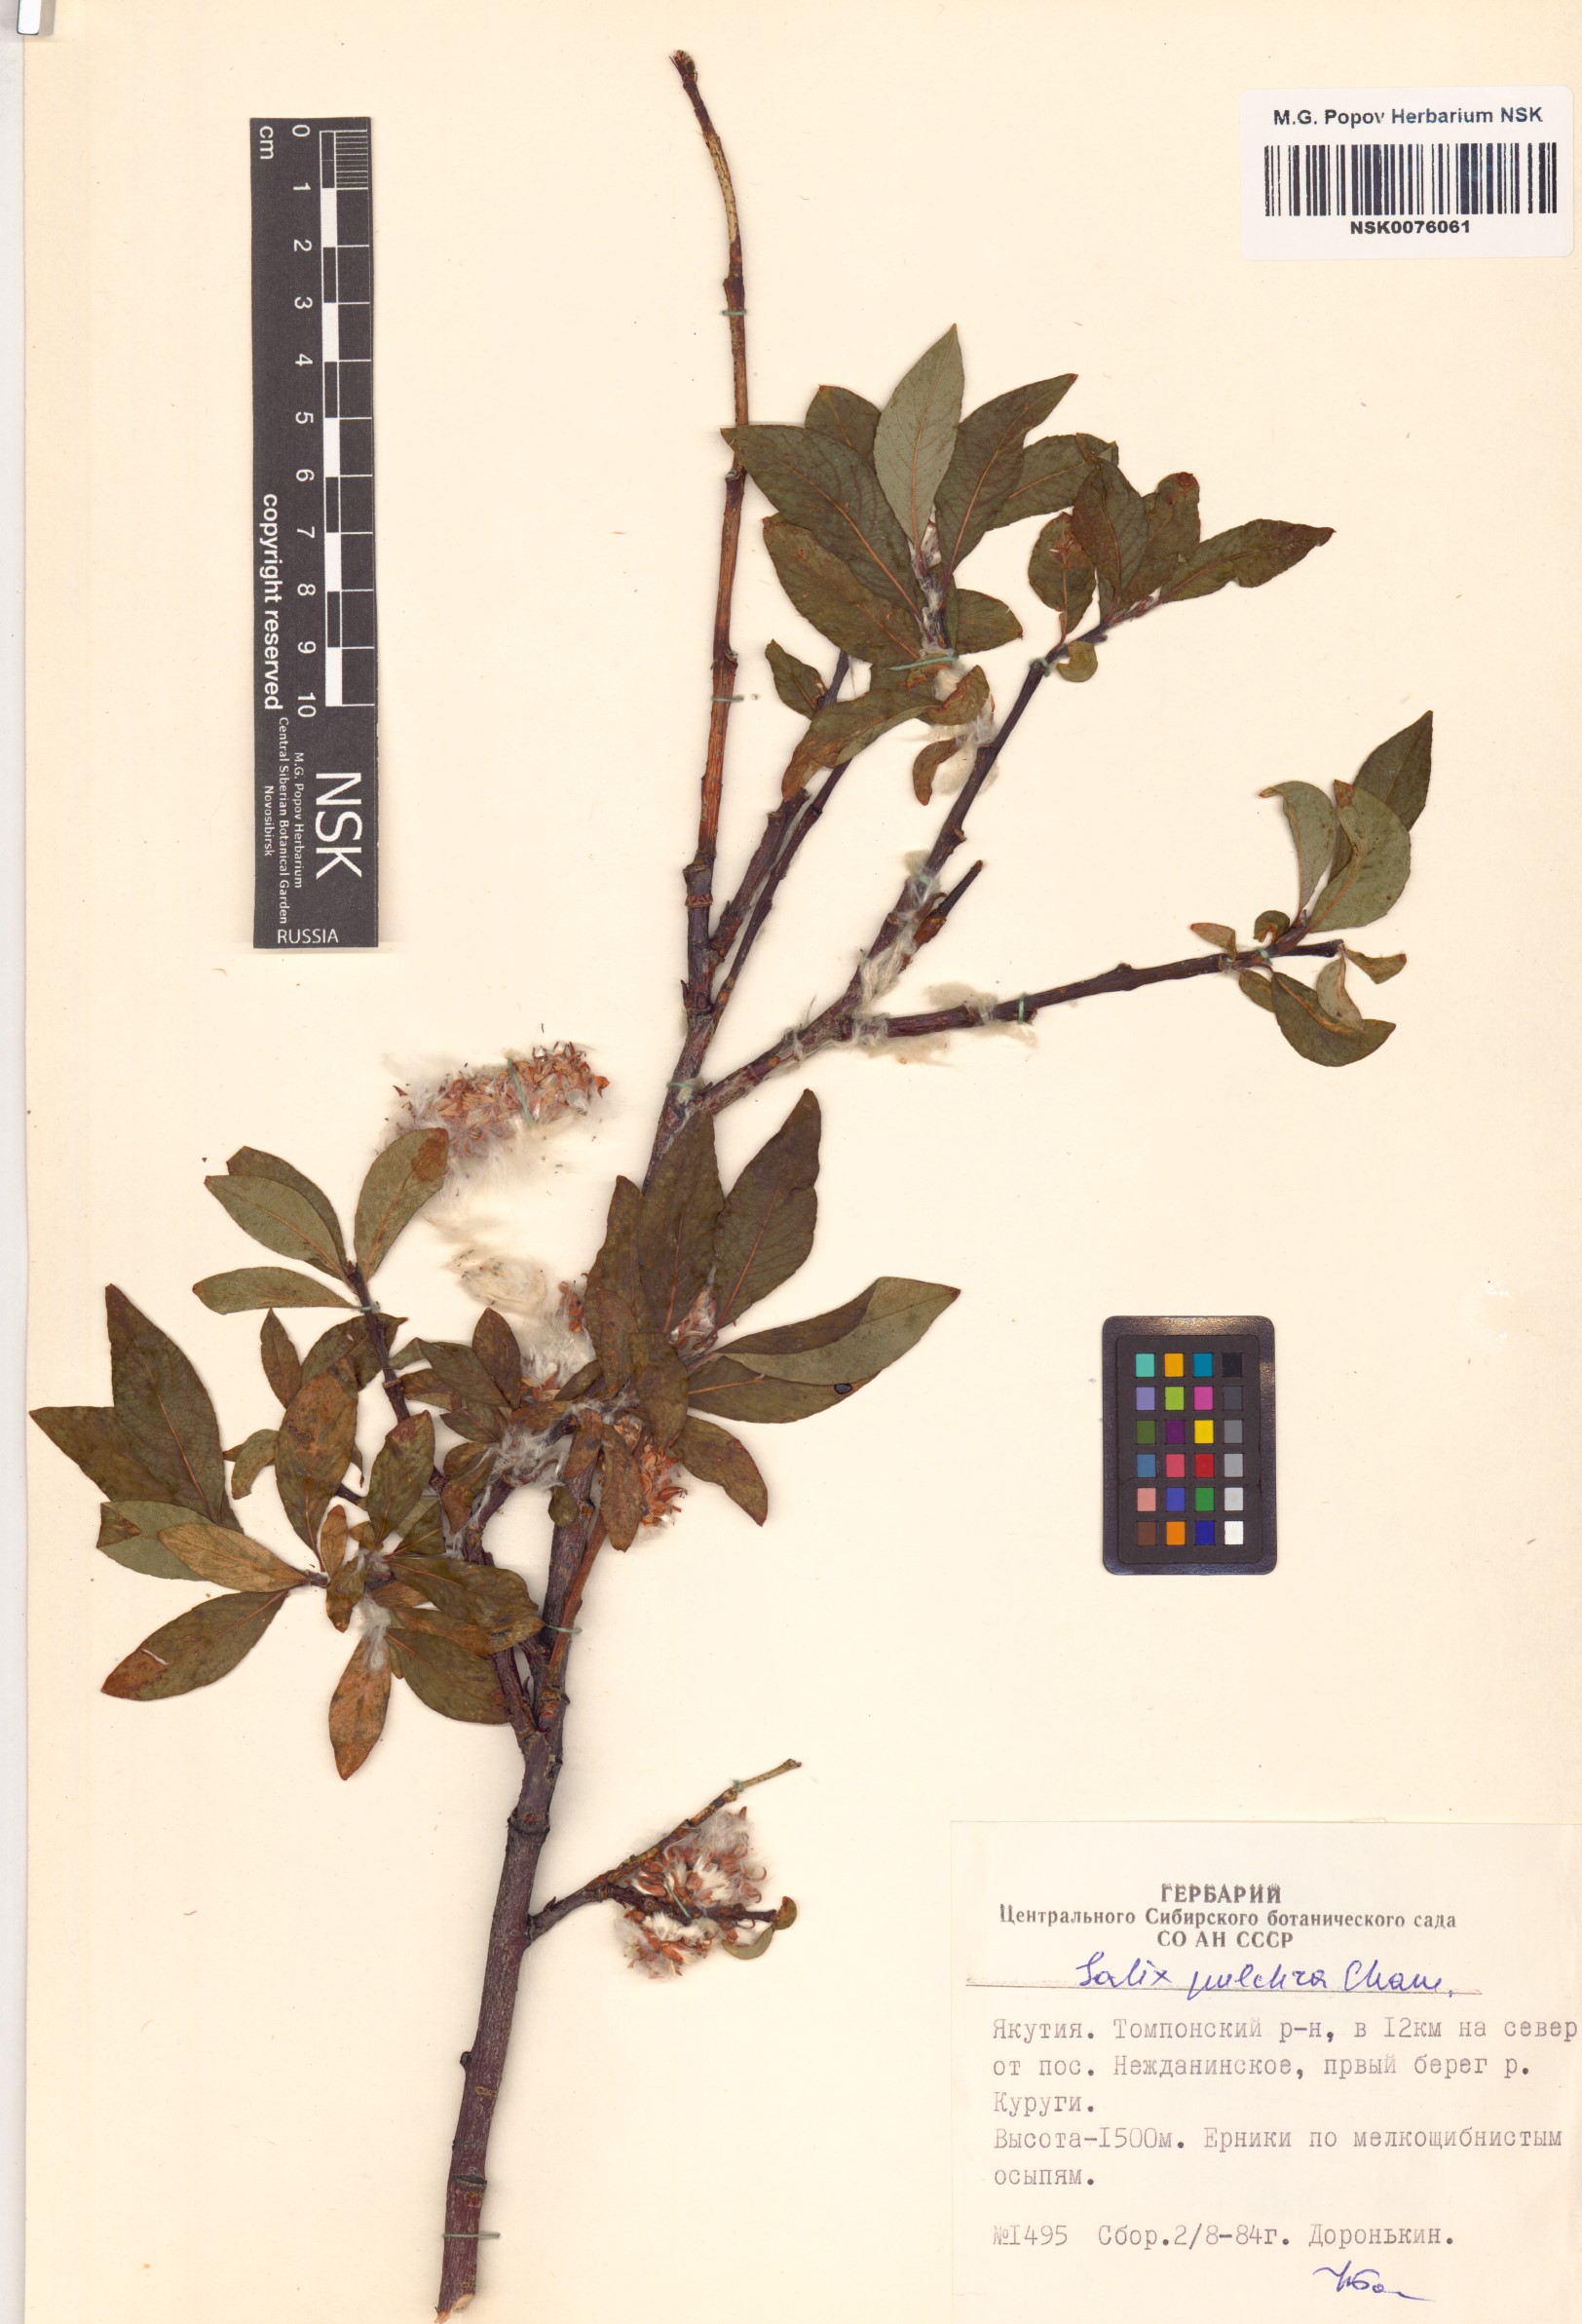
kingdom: Plantae
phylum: Tracheophyta
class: Magnoliopsida
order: Malpighiales
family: Salicaceae
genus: Salix
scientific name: Salix pulchra
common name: Diamond-leaved willow
